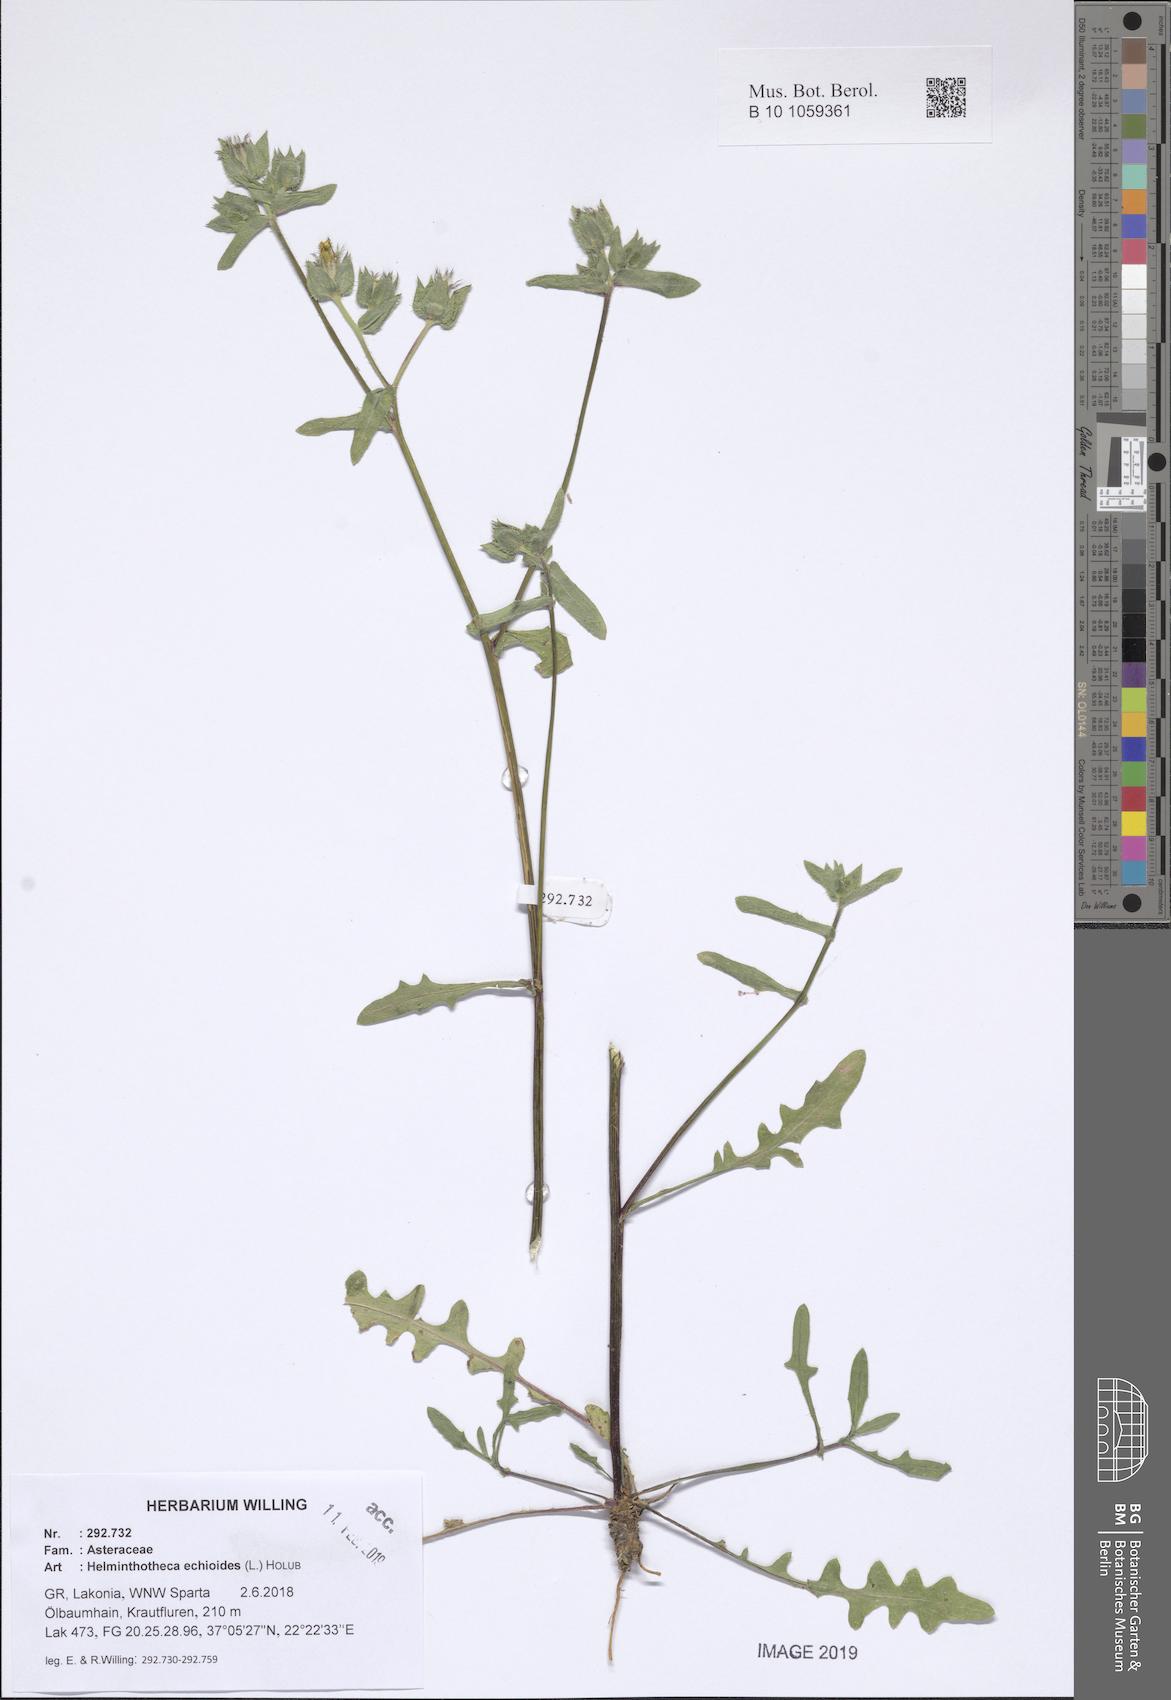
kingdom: Plantae
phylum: Tracheophyta
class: Magnoliopsida
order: Asterales
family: Asteraceae
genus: Helminthotheca
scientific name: Helminthotheca echioides
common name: Ox-tongue
